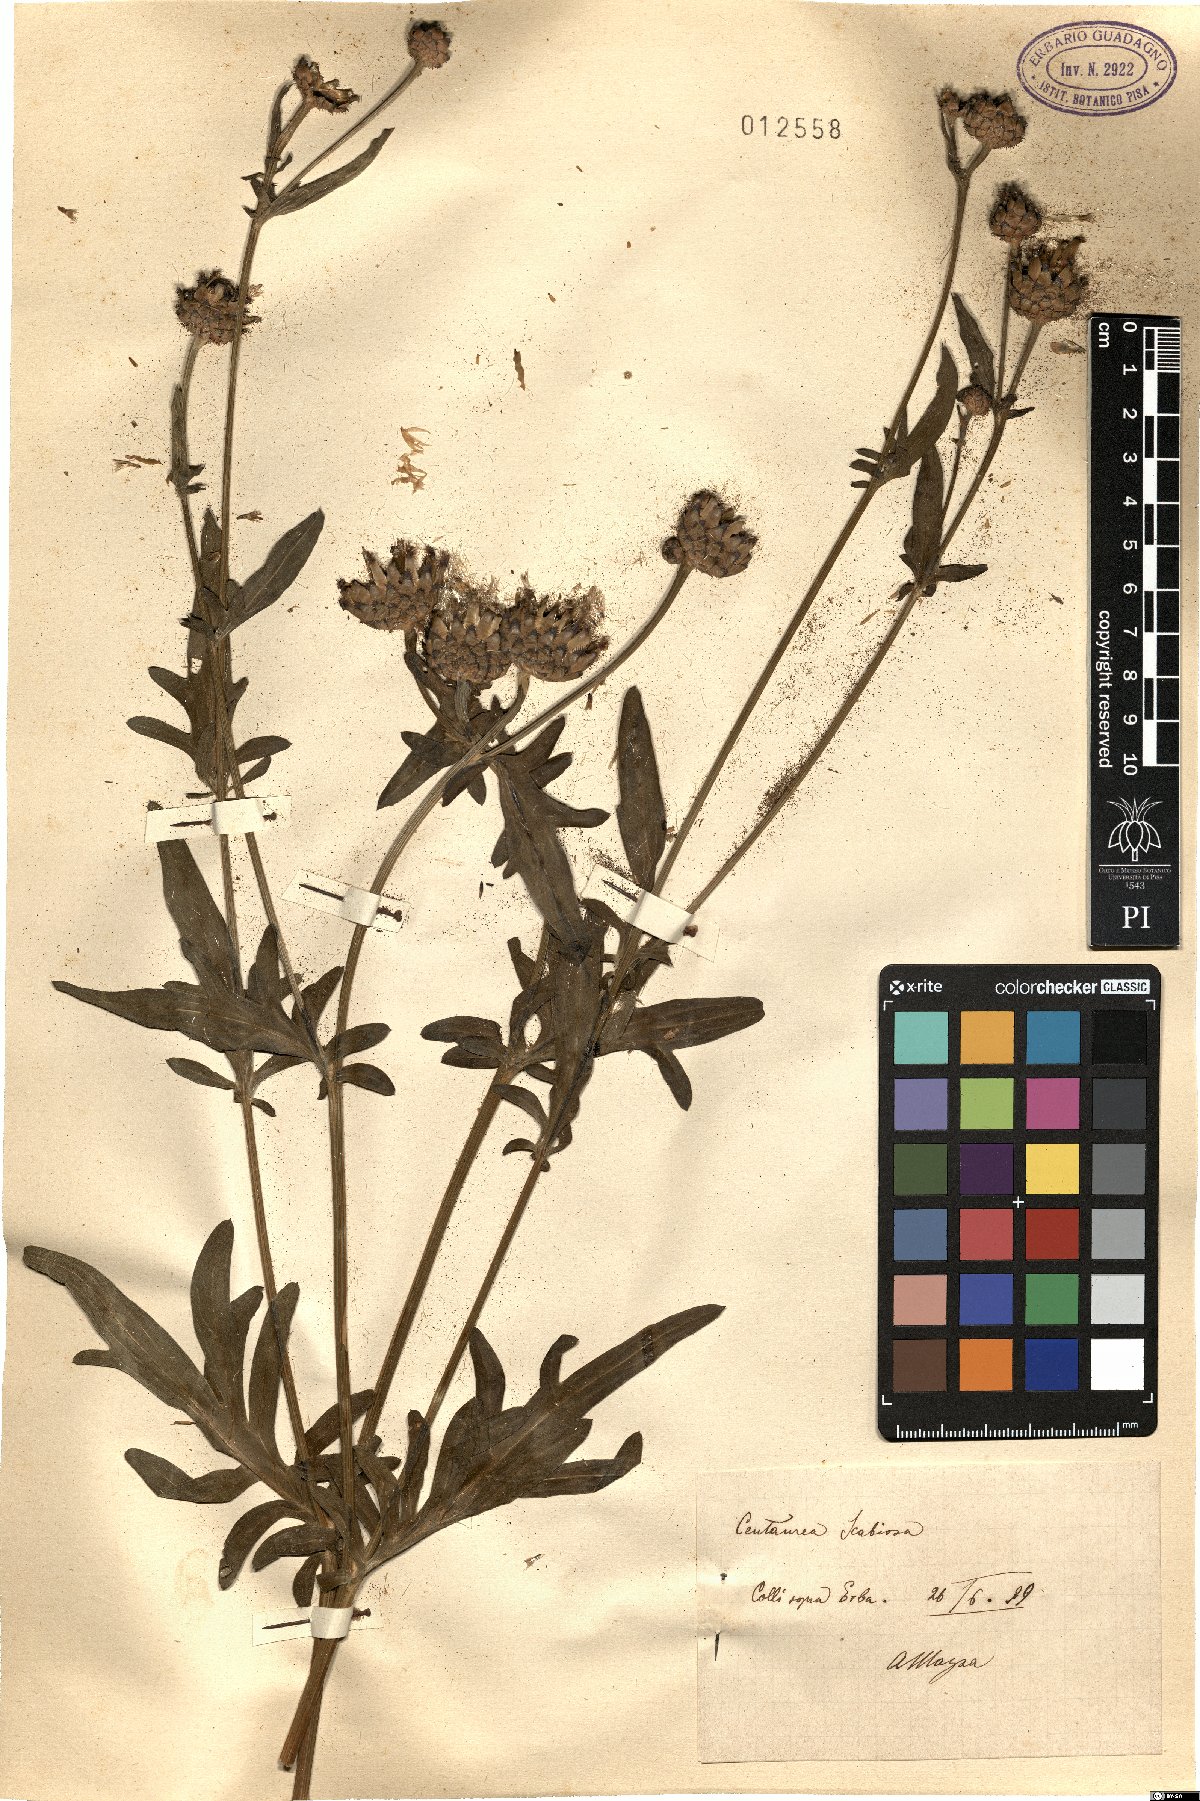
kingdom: Plantae
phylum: Tracheophyta
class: Magnoliopsida
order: Asterales
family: Asteraceae
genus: Centaurea
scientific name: Centaurea scabiosa
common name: Greater knapweed
